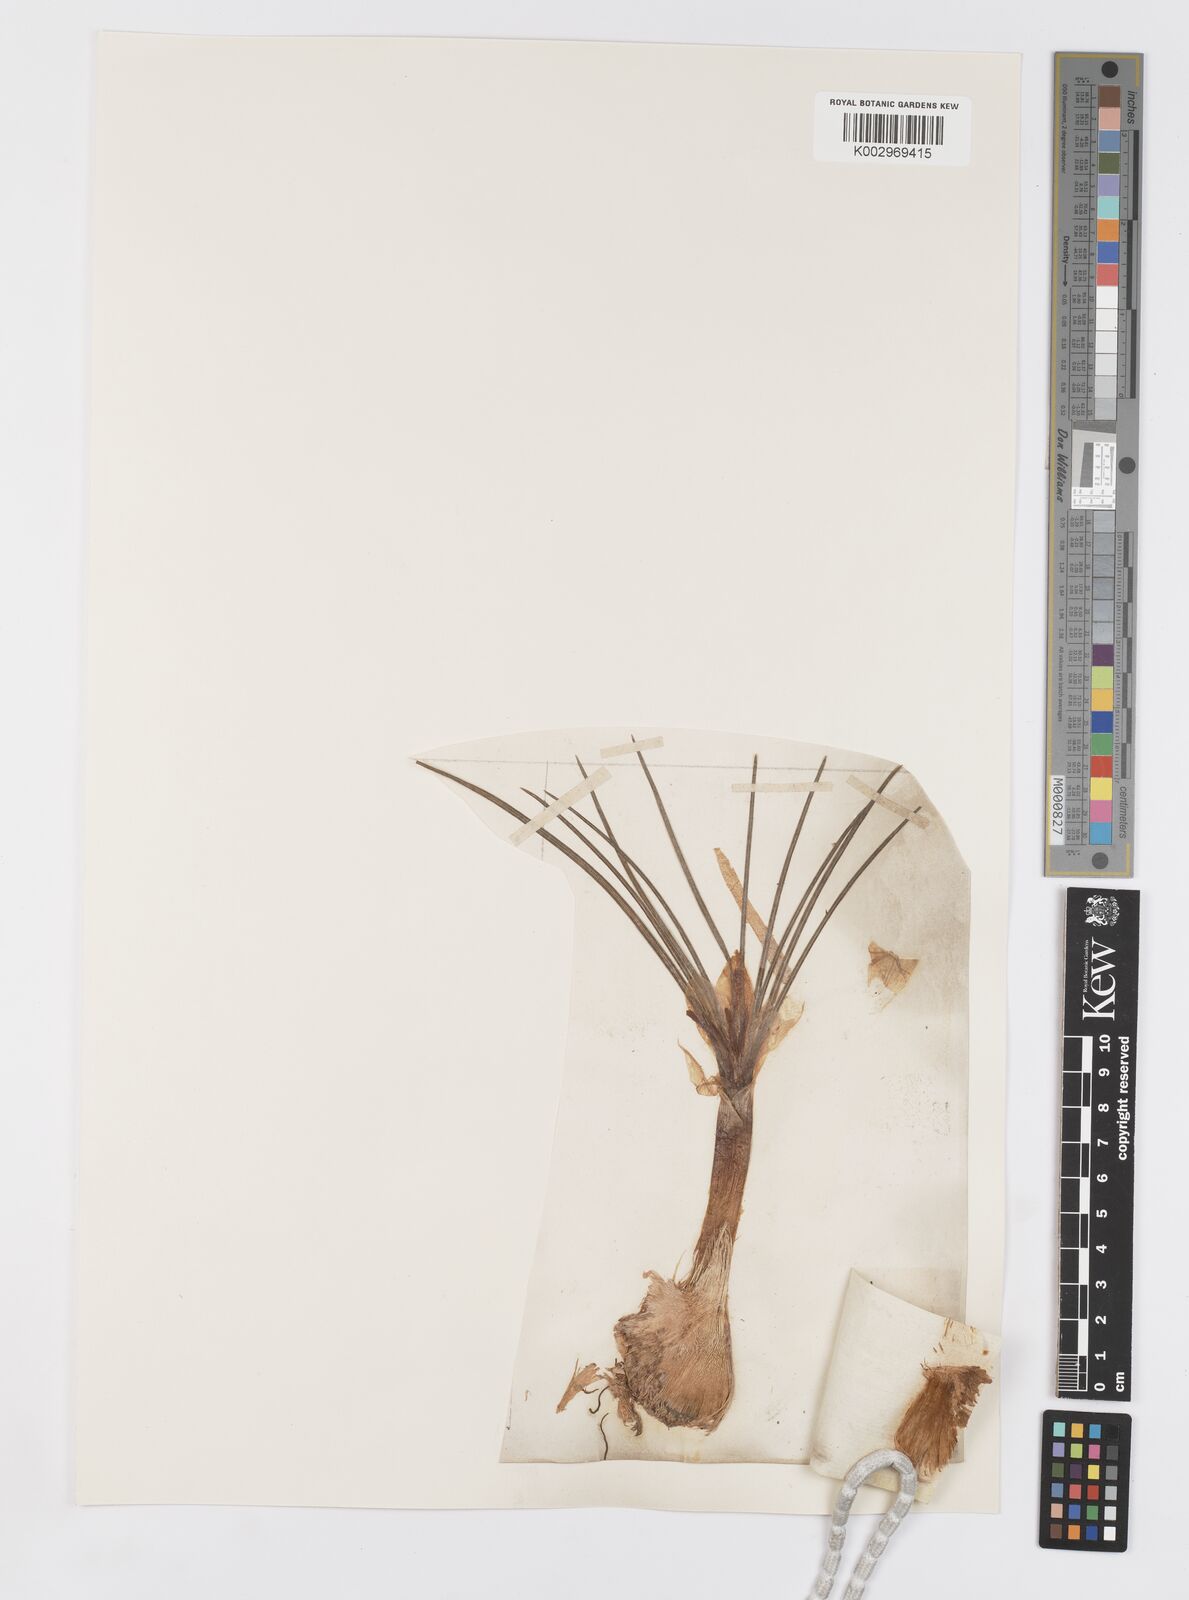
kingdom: Plantae
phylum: Tracheophyta
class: Liliopsida
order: Asparagales
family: Iridaceae
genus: Crocus
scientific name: Crocus sativus
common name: Saffron crocus
